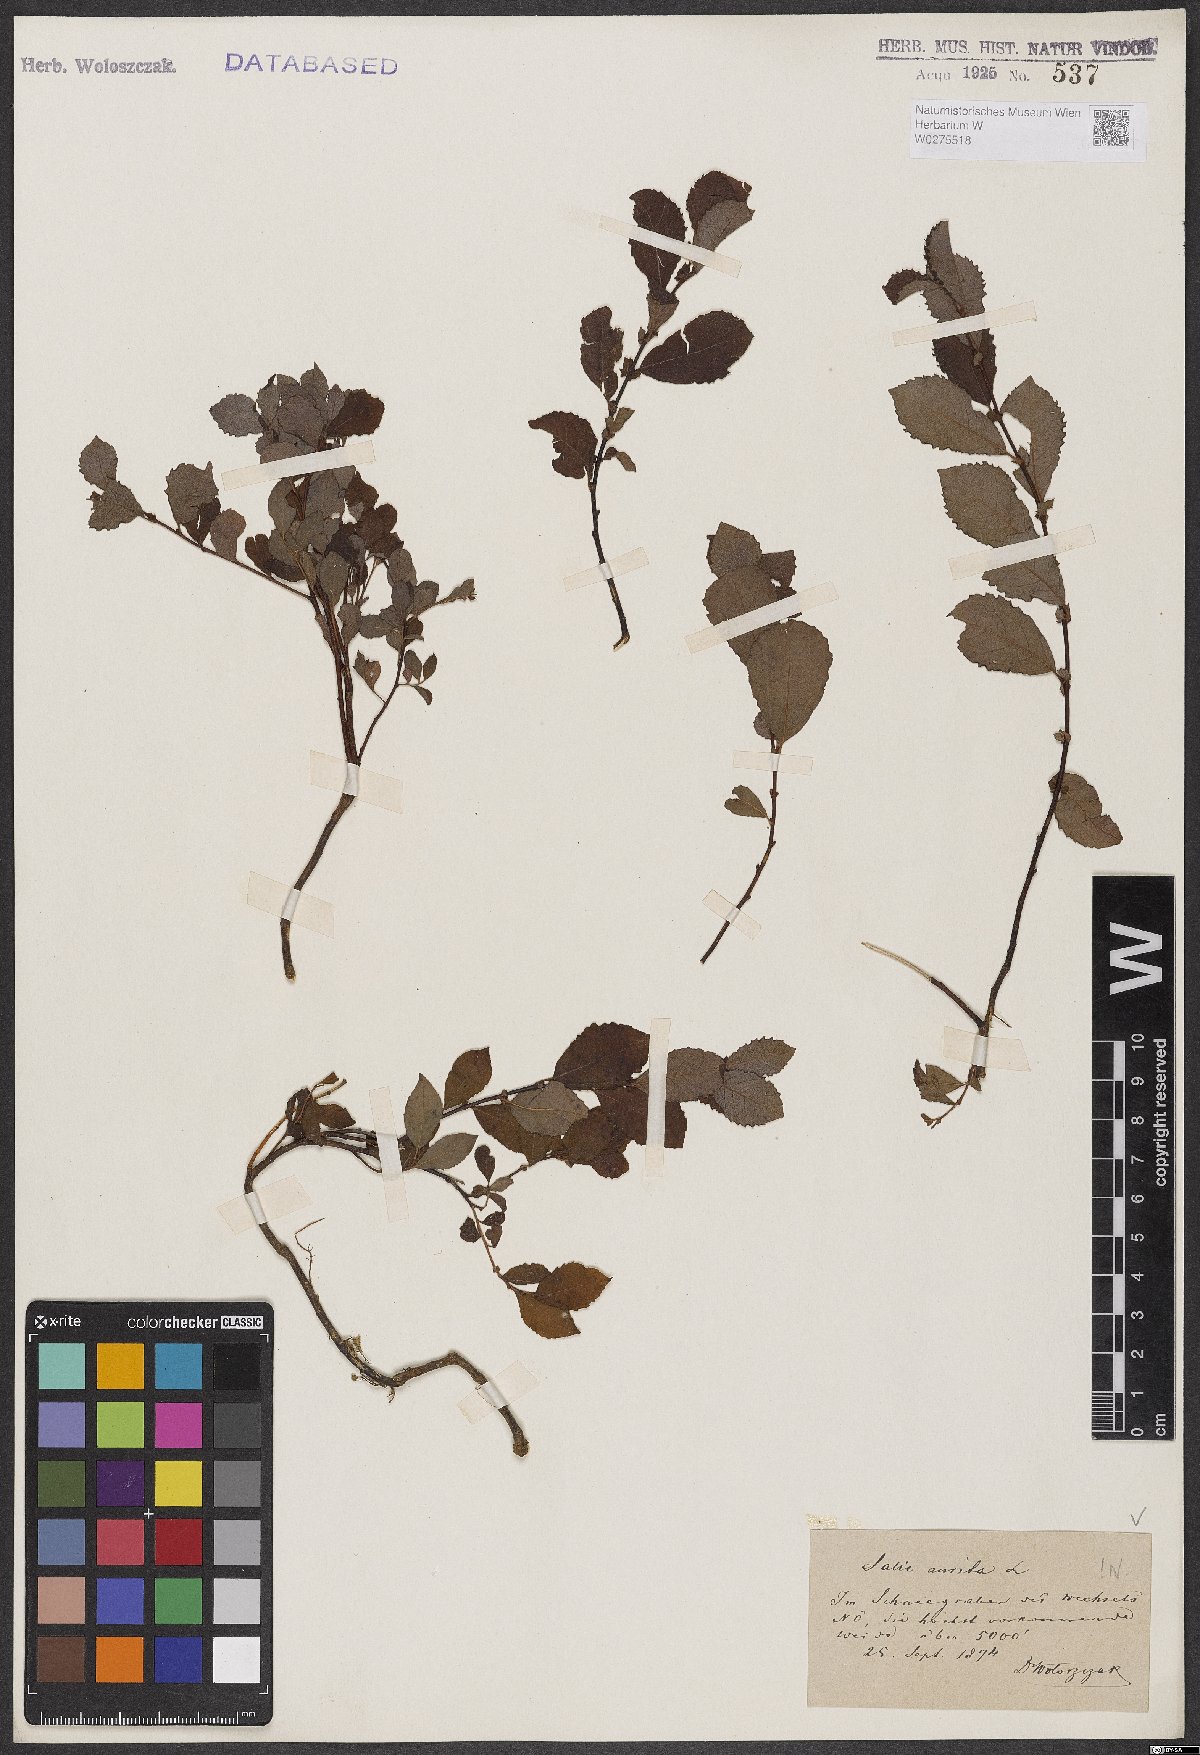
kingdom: Plantae
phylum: Tracheophyta
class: Magnoliopsida
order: Malpighiales
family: Salicaceae
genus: Salix
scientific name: Salix aurita
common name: Eared willow
